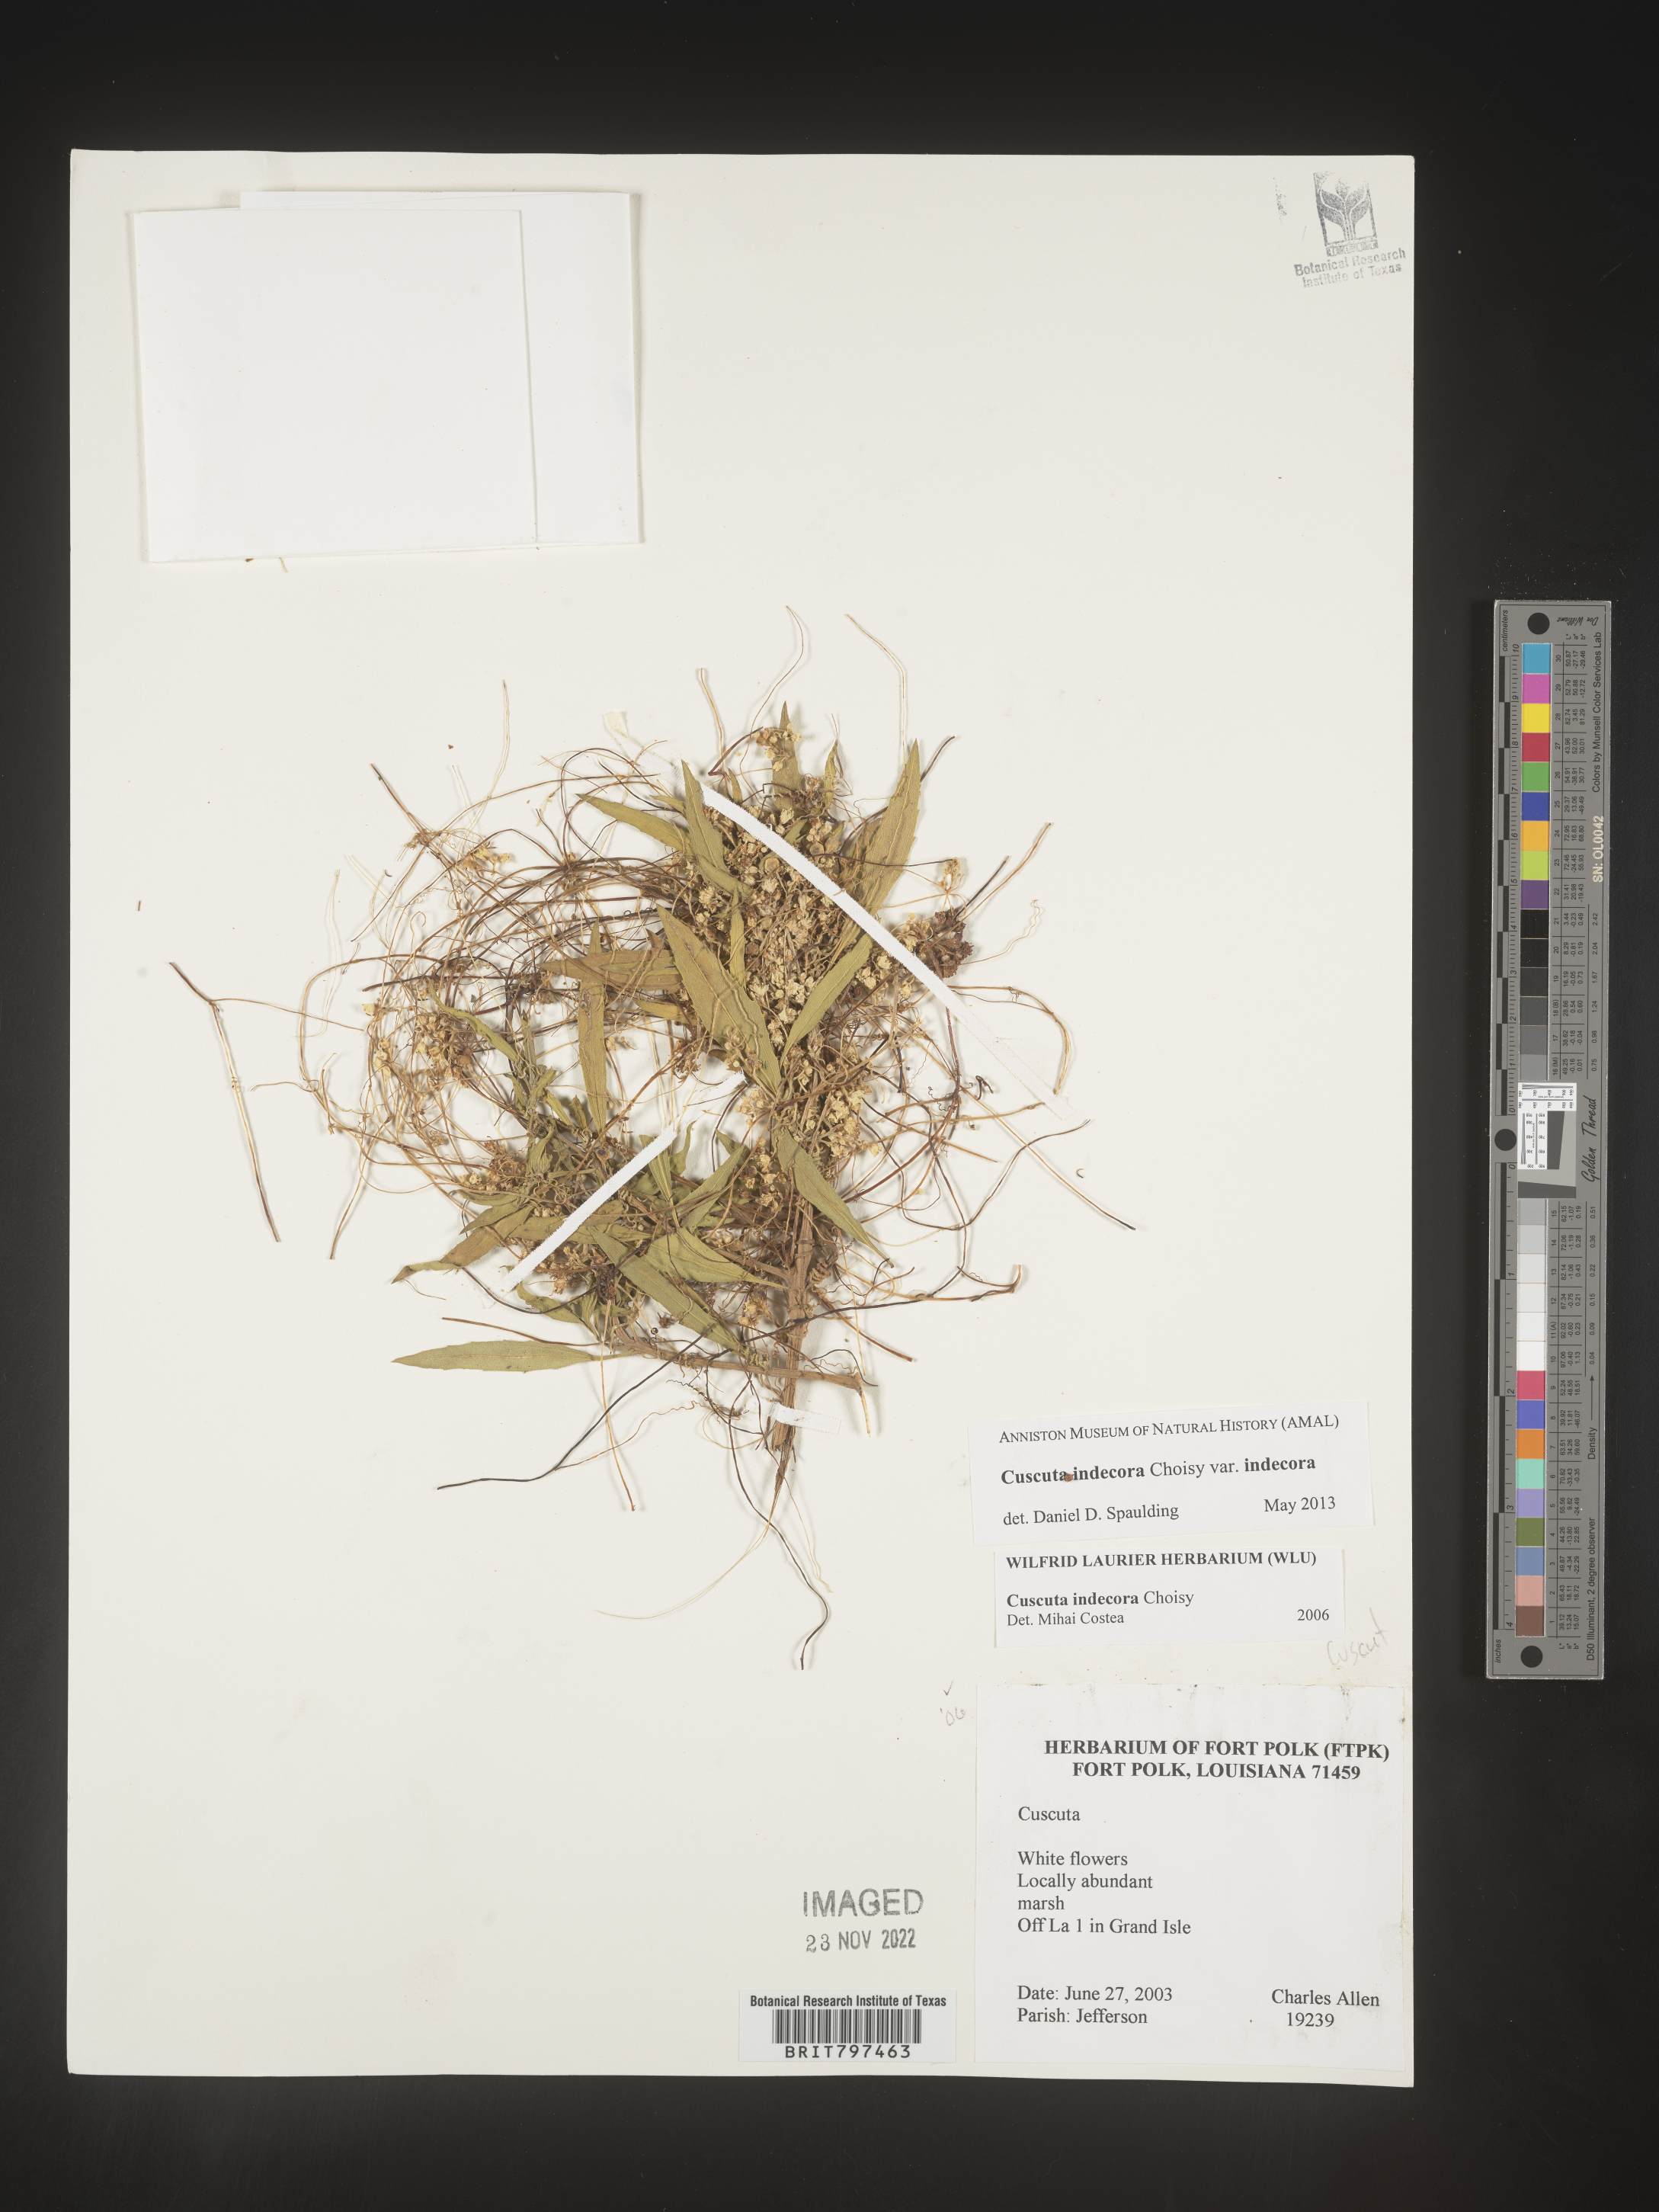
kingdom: Plantae
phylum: Tracheophyta
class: Magnoliopsida
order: Solanales
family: Convolvulaceae
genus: Cuscuta
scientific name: Cuscuta indecora
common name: Large-seed dodder
